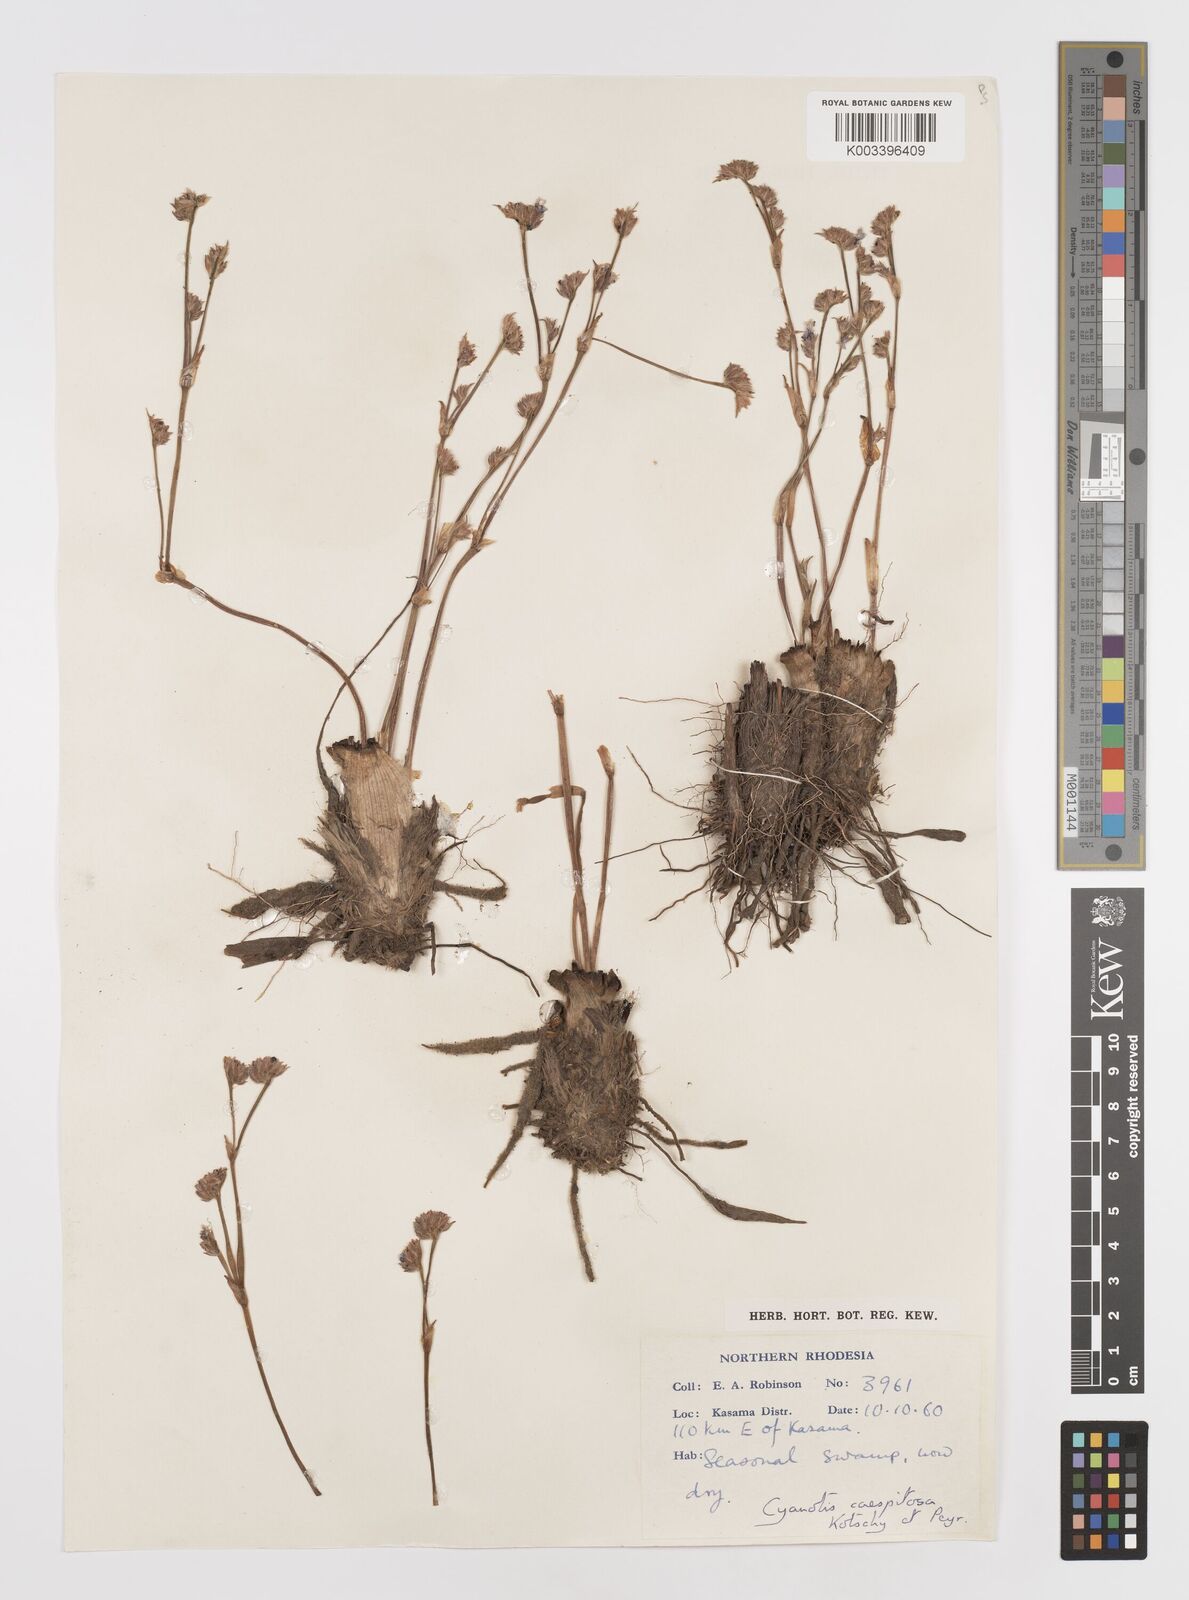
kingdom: Plantae
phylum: Tracheophyta
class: Liliopsida
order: Commelinales
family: Commelinaceae
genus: Cyanotis
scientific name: Cyanotis caespitosa
